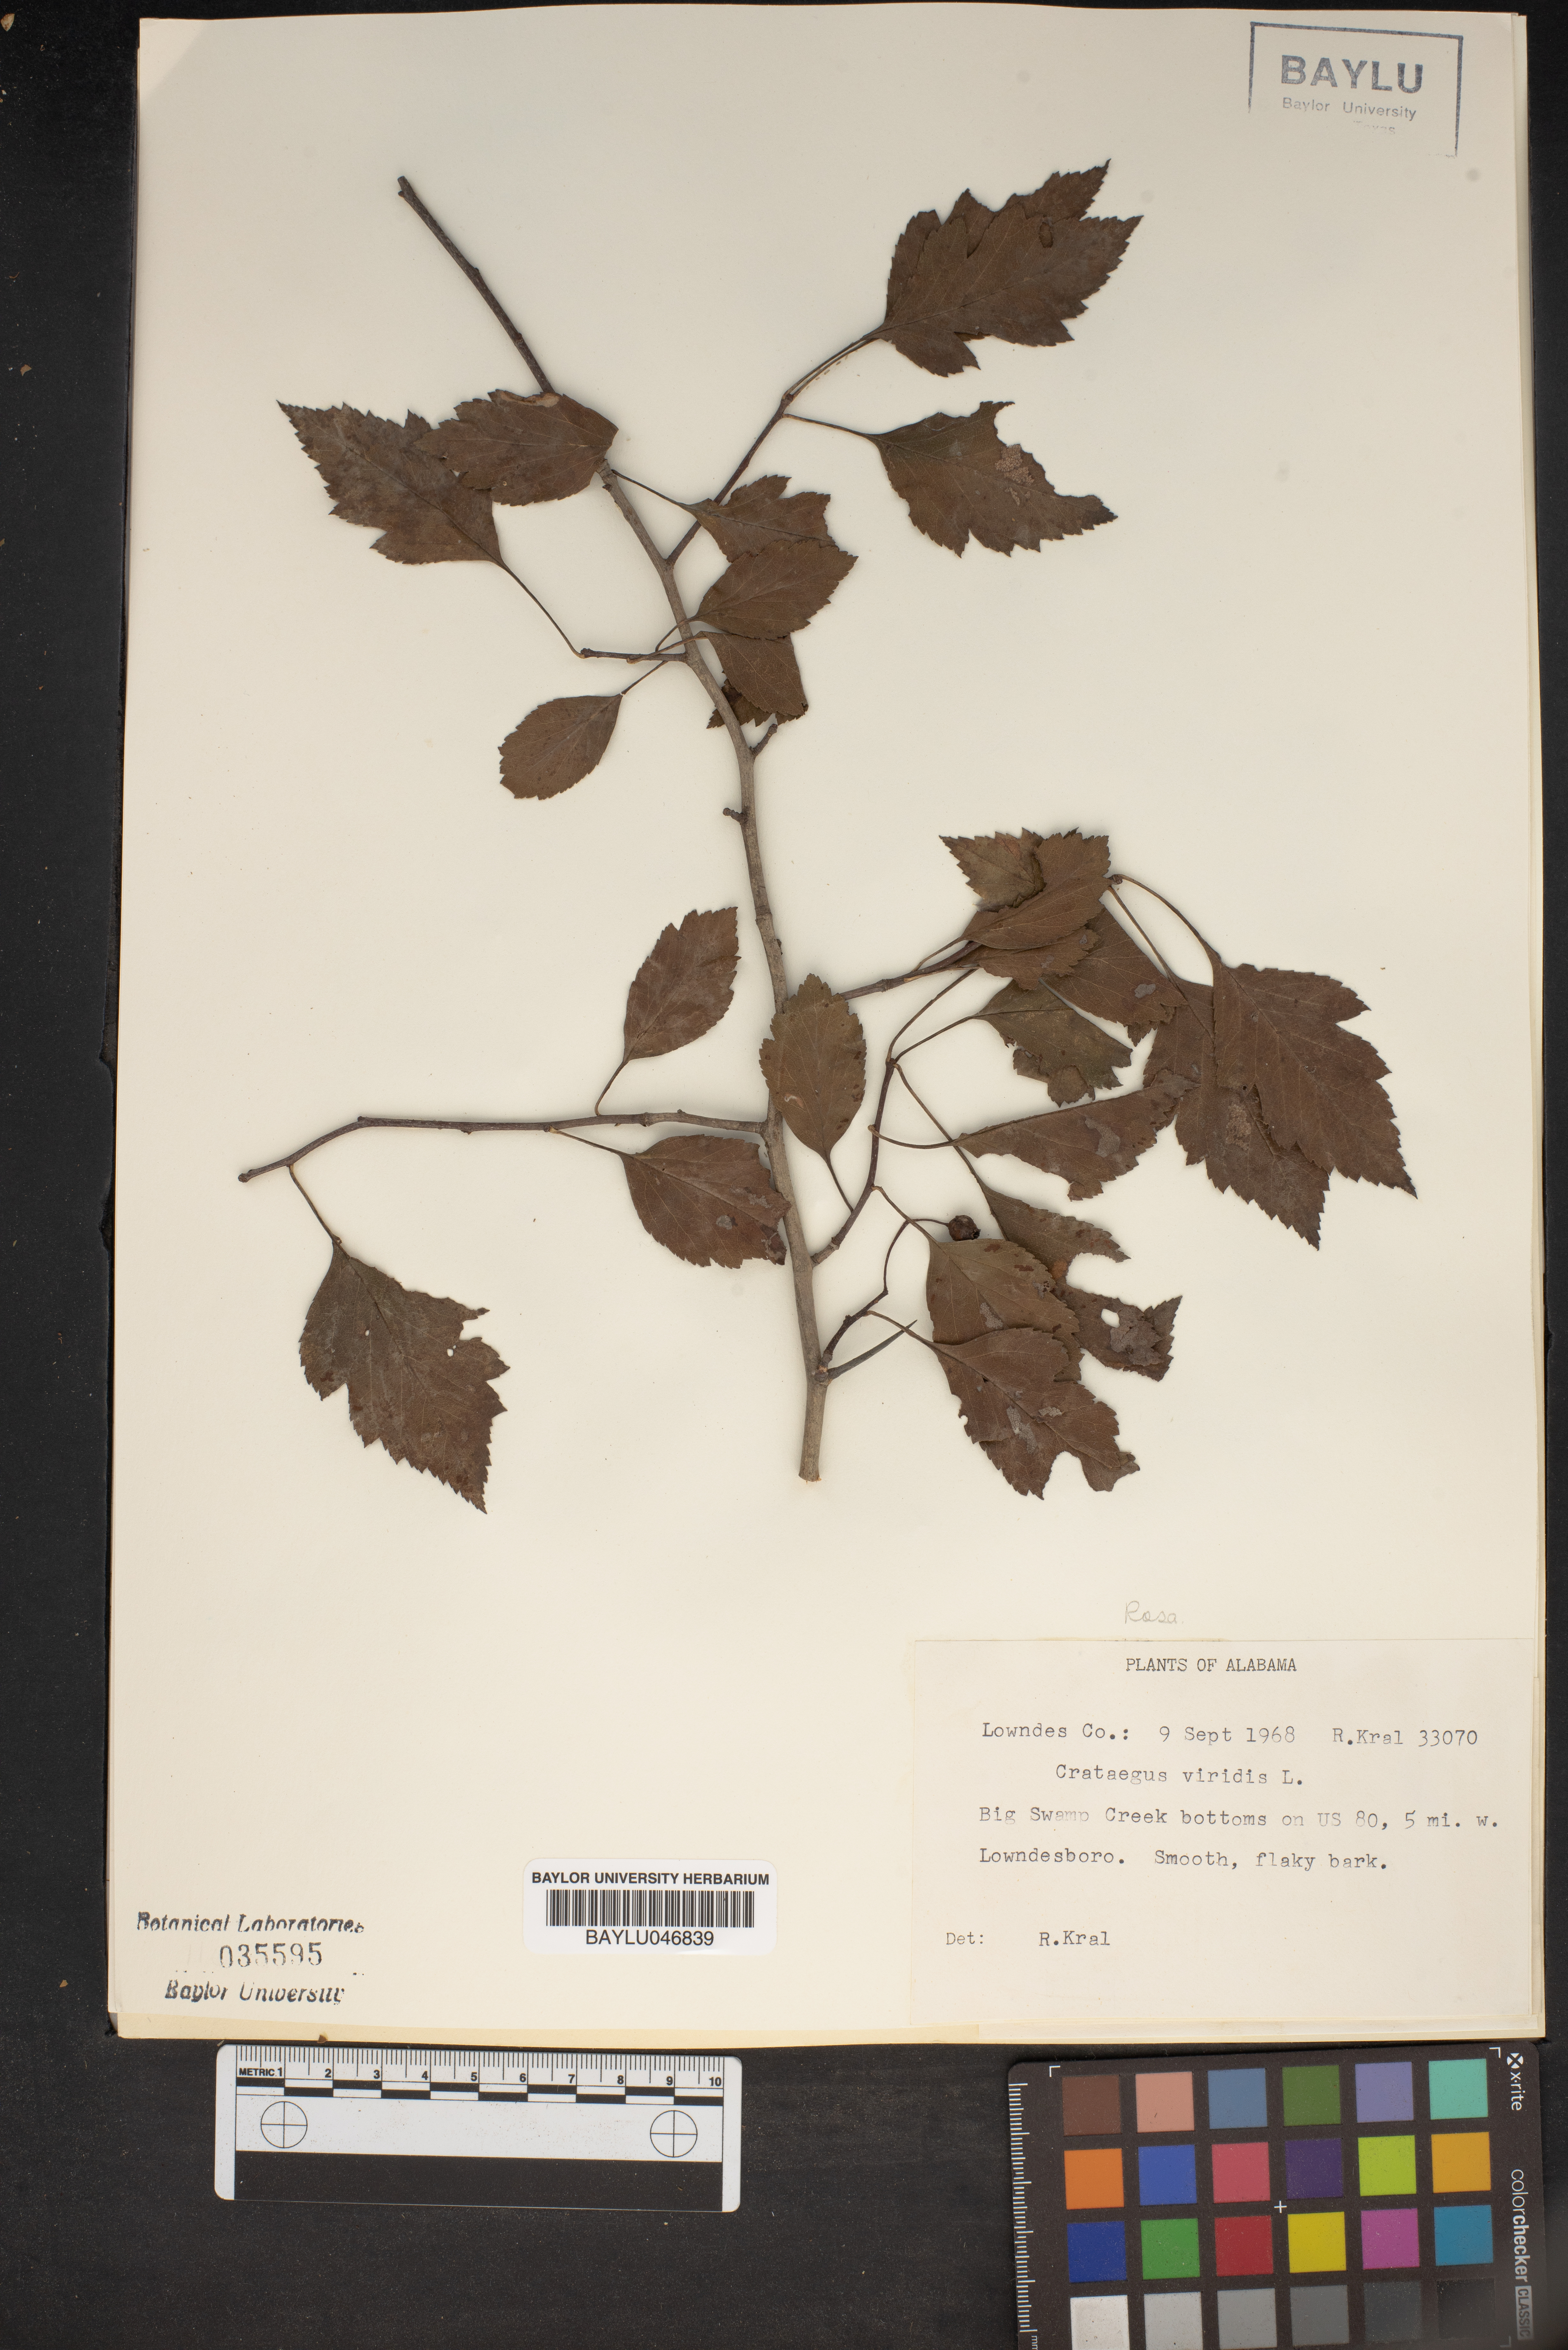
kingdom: Plantae
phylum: Tracheophyta
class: Magnoliopsida
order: Rosales
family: Rosaceae
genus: Crataegus
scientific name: Crataegus viridis
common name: Southernthorn
